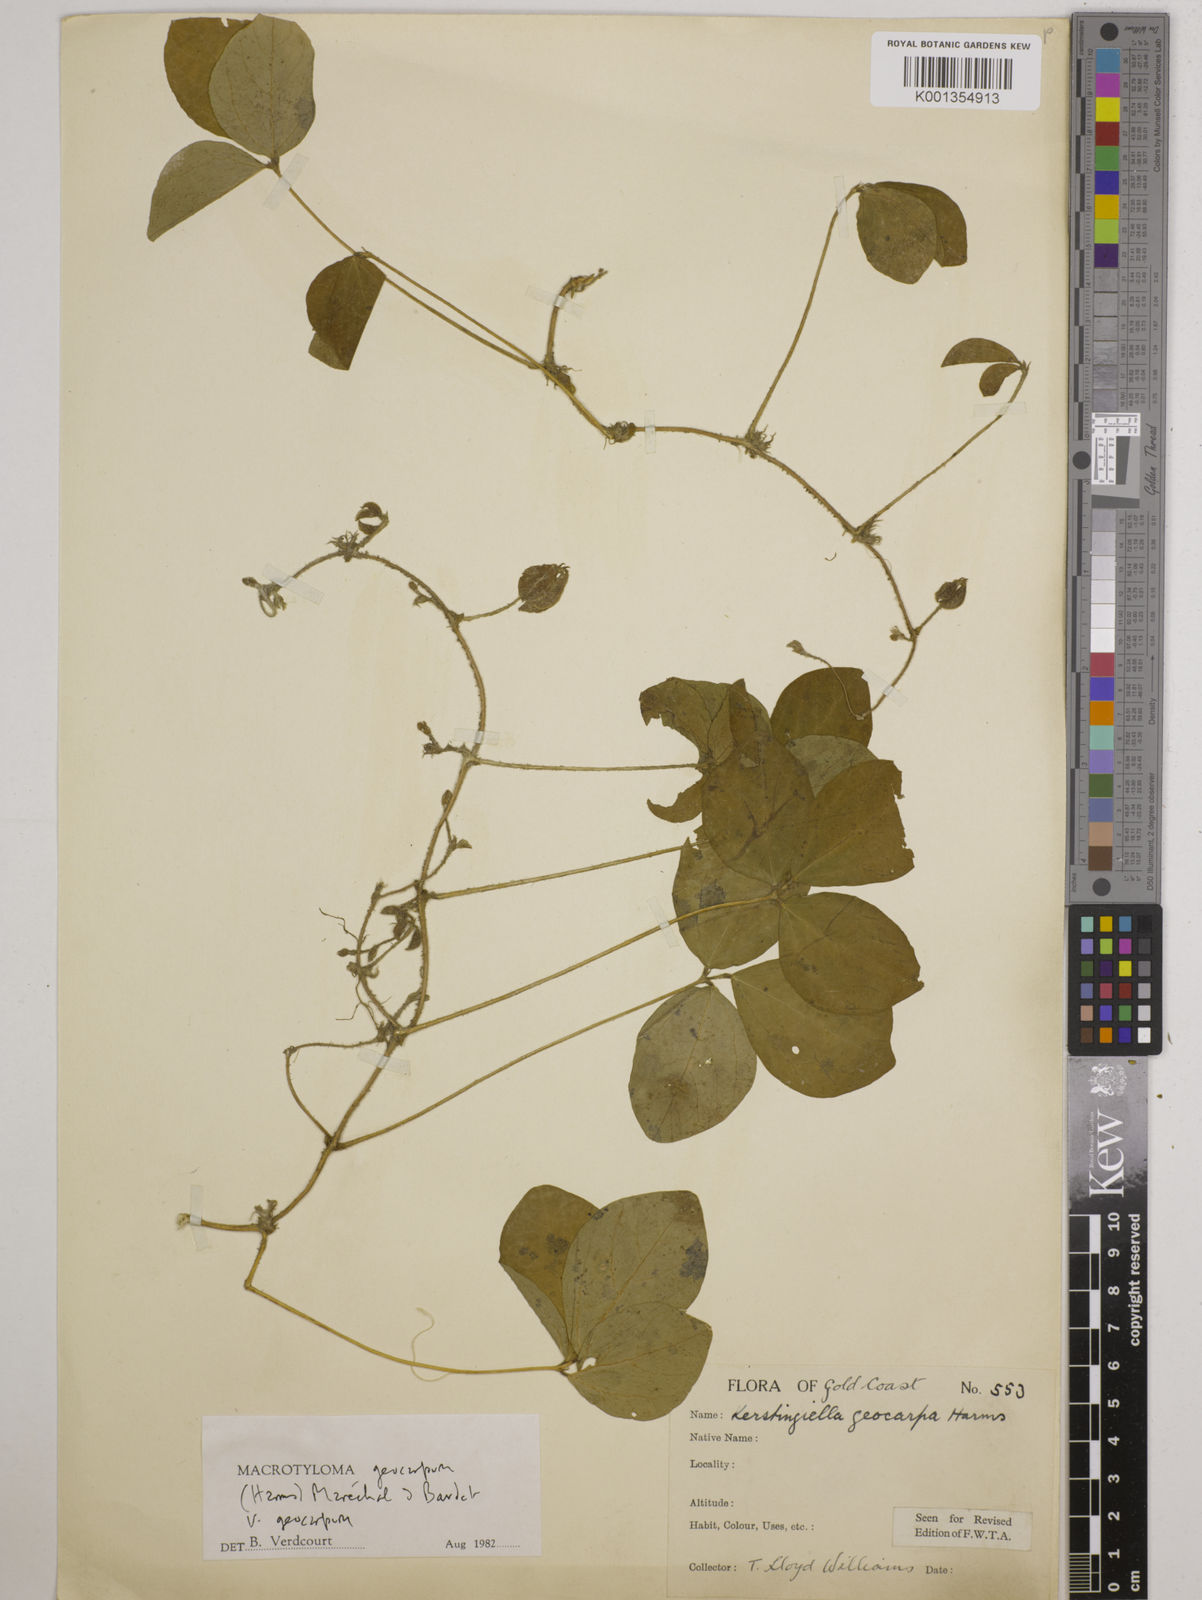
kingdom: Plantae
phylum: Tracheophyta
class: Magnoliopsida
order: Fabales
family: Fabaceae
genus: Macrotyloma
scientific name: Macrotyloma geocarpum
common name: Ground-bean
